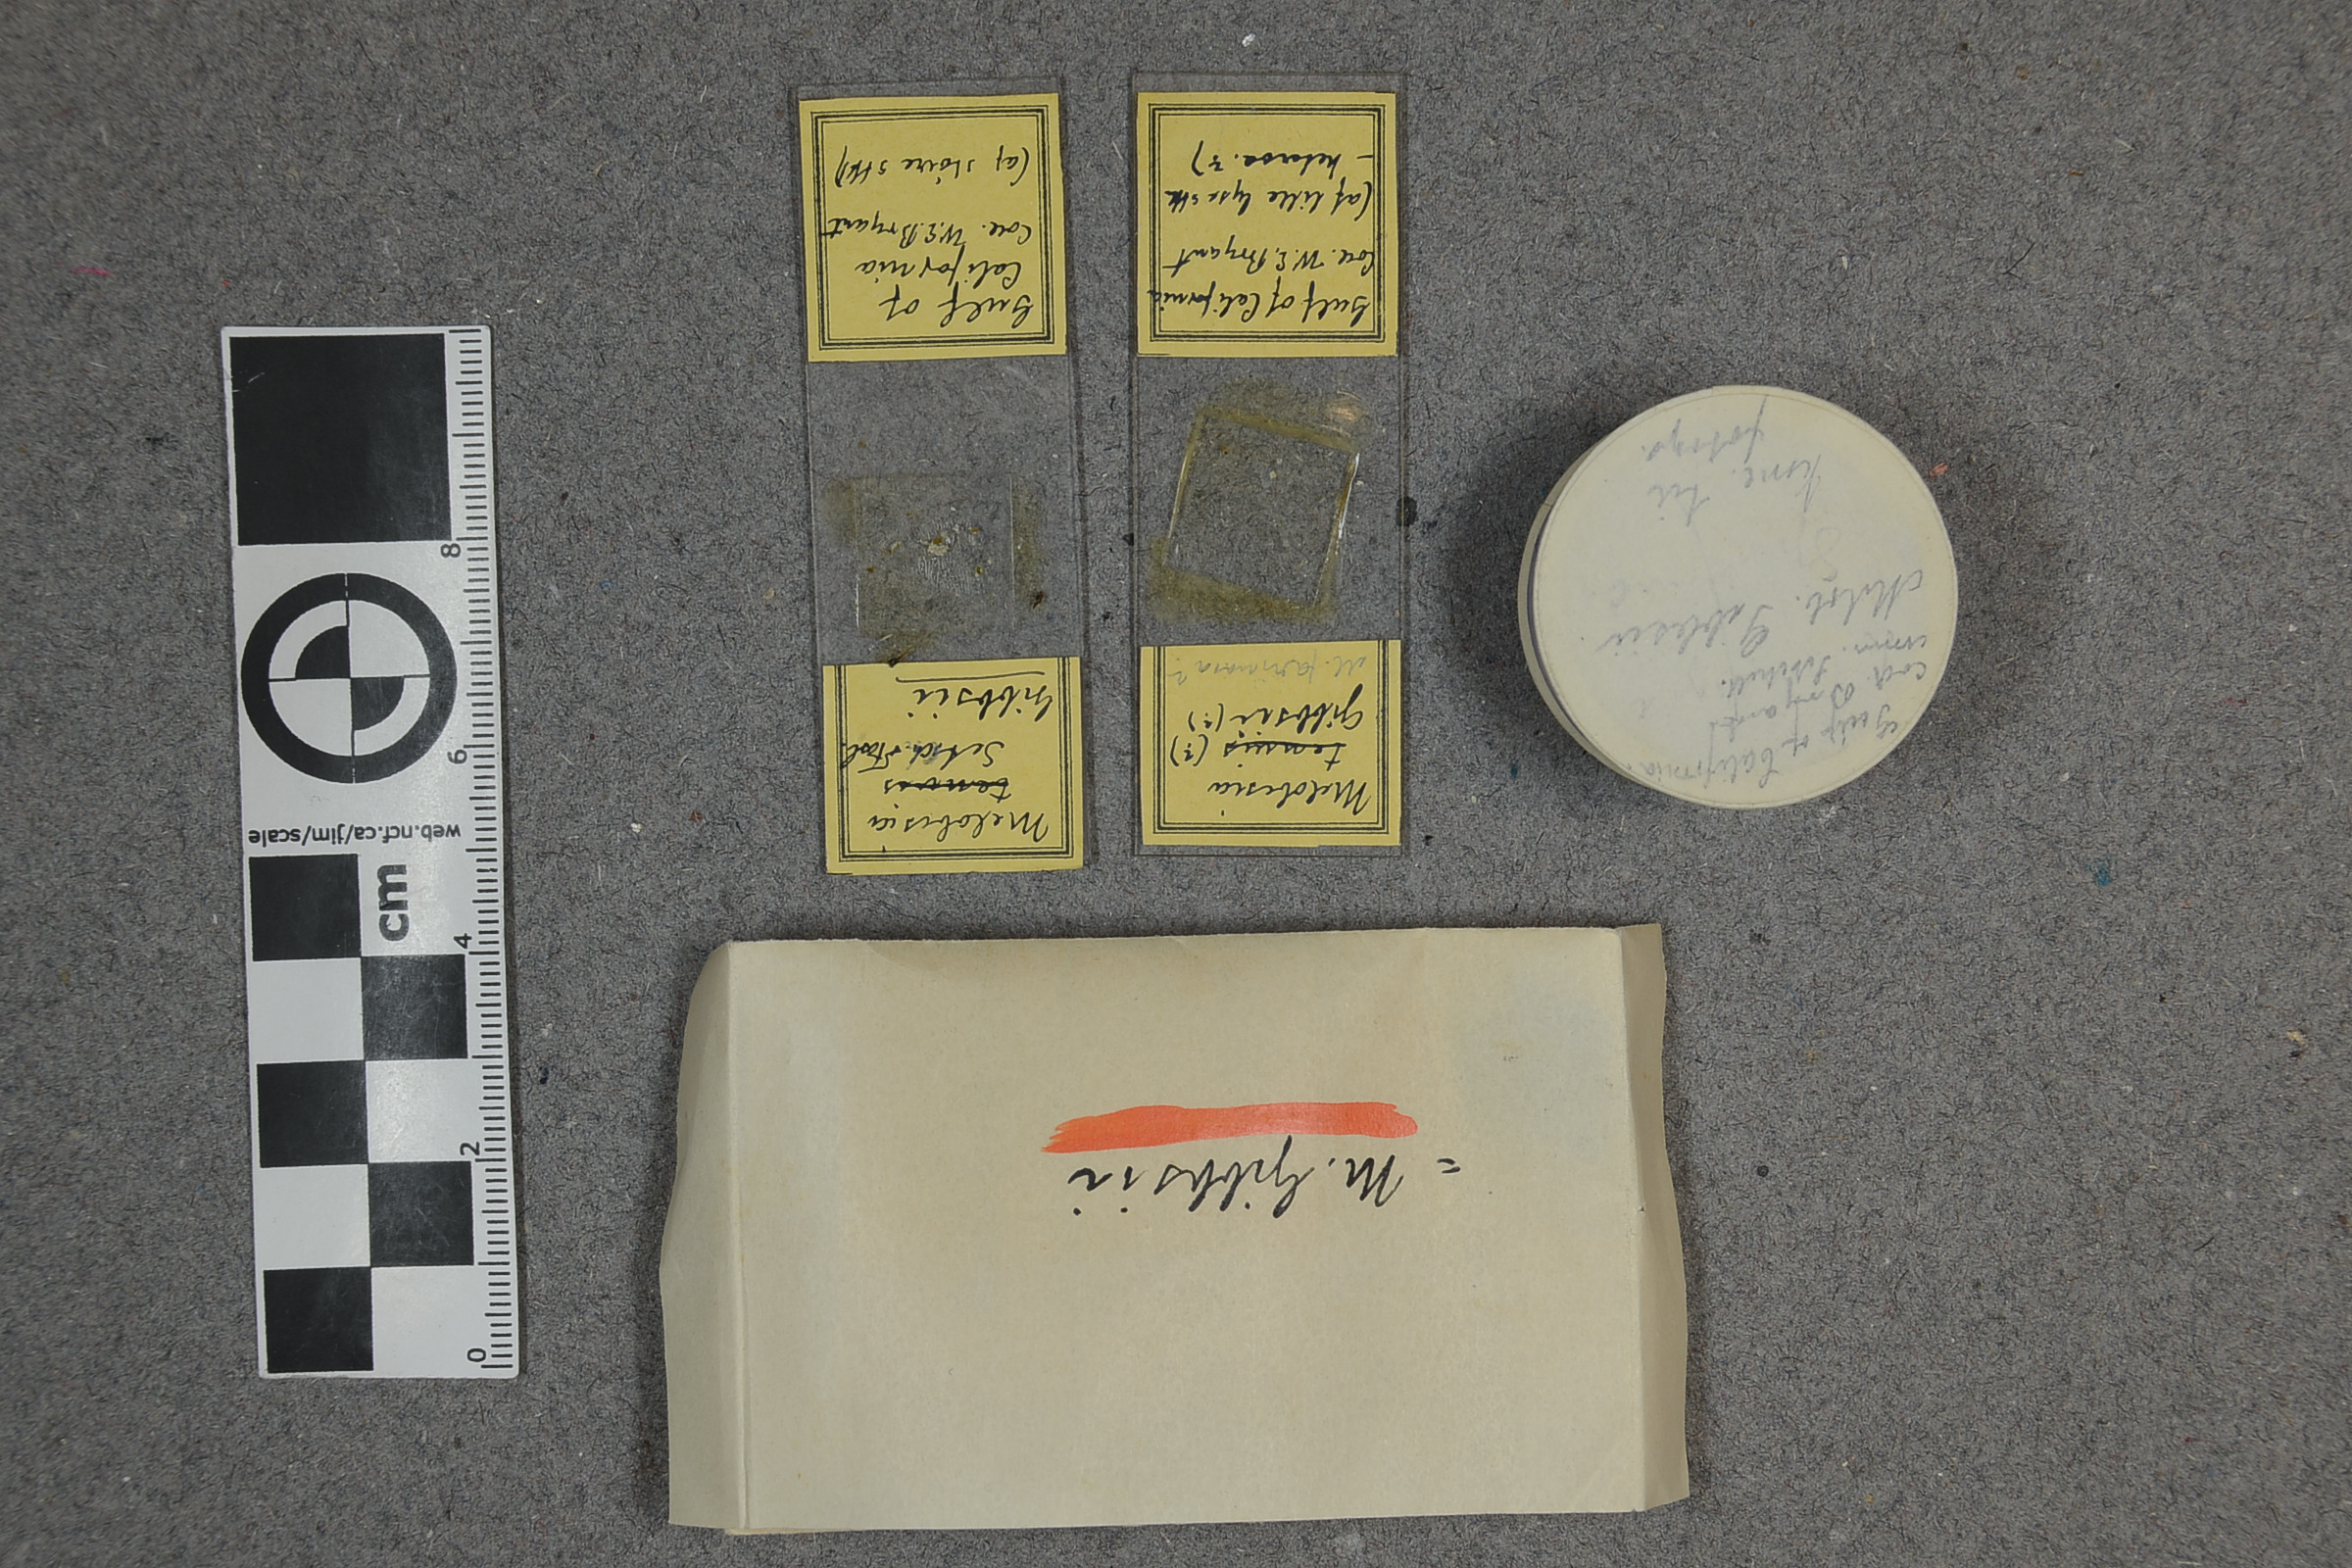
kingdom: Plantae
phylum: Rhodophyta
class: Florideophyceae
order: Corallinales
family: Corallinaceae
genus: Heteroderma
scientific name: Heteroderma gibbsii
